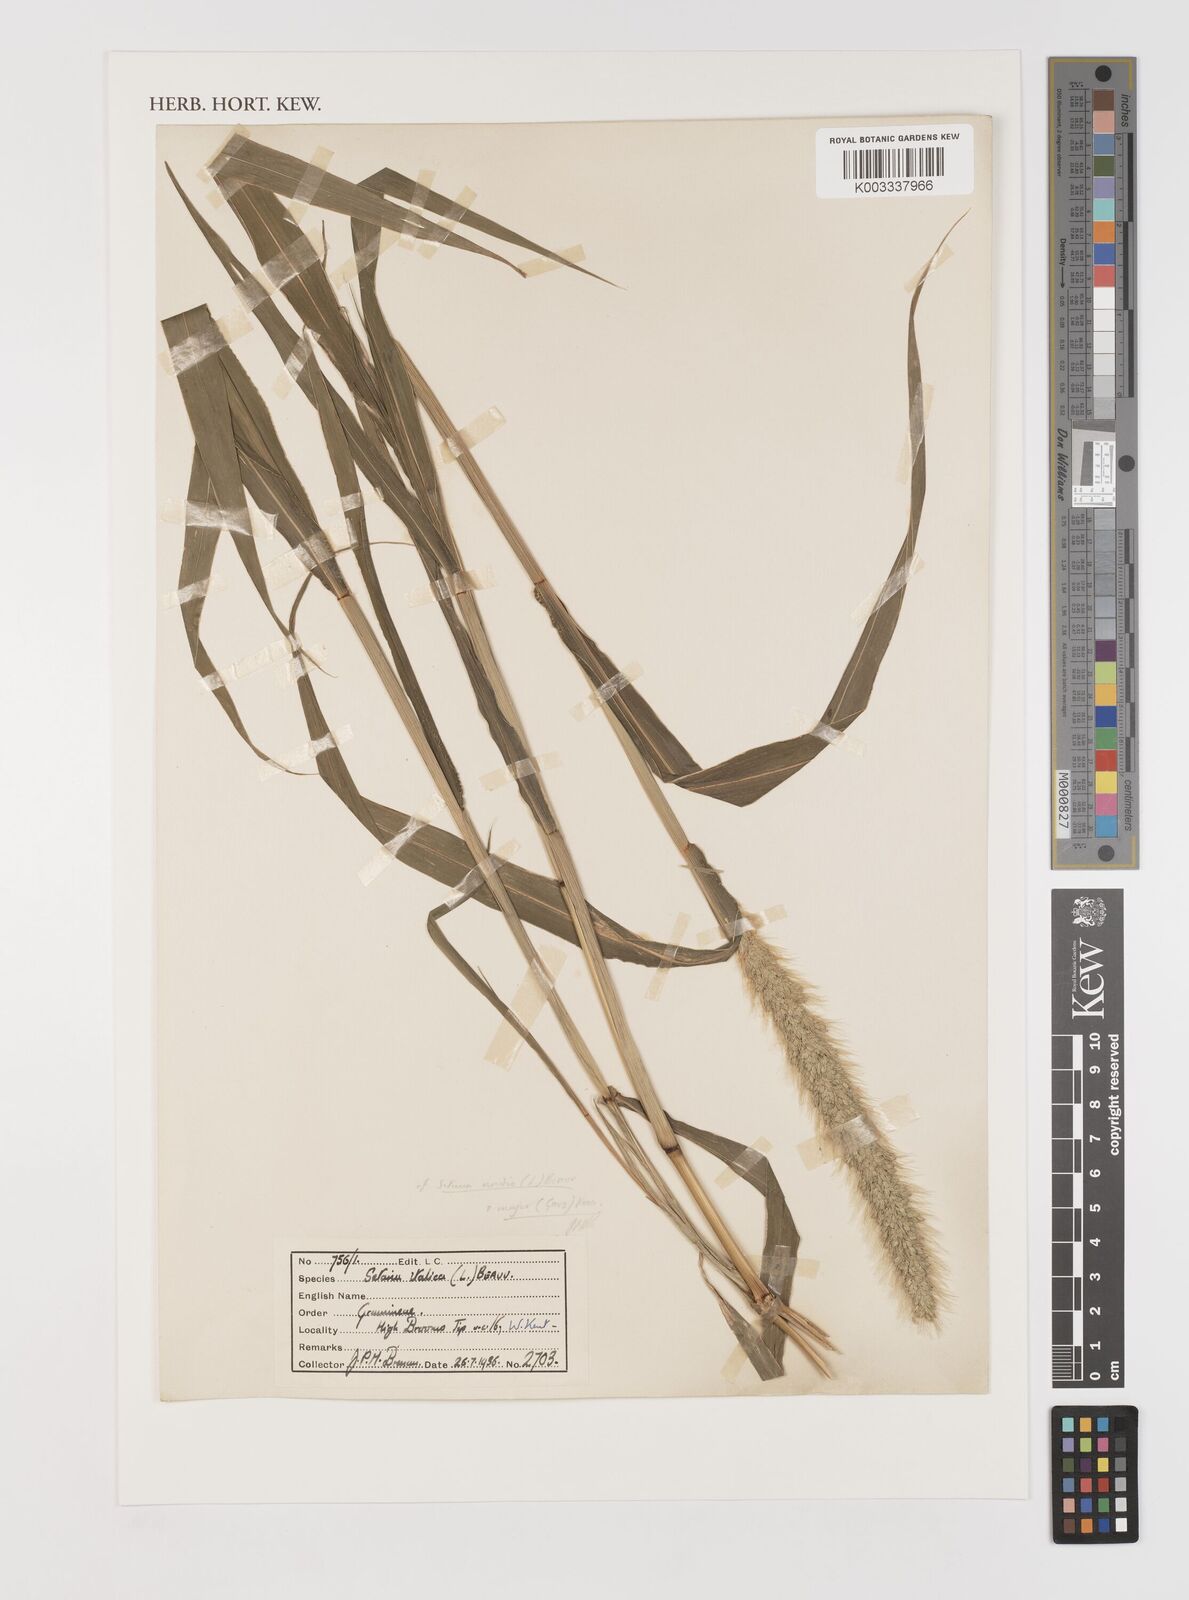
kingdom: Plantae
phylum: Tracheophyta
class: Liliopsida
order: Poales
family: Poaceae
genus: Setaria
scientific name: Setaria italica
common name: Foxtail bristle-grass
